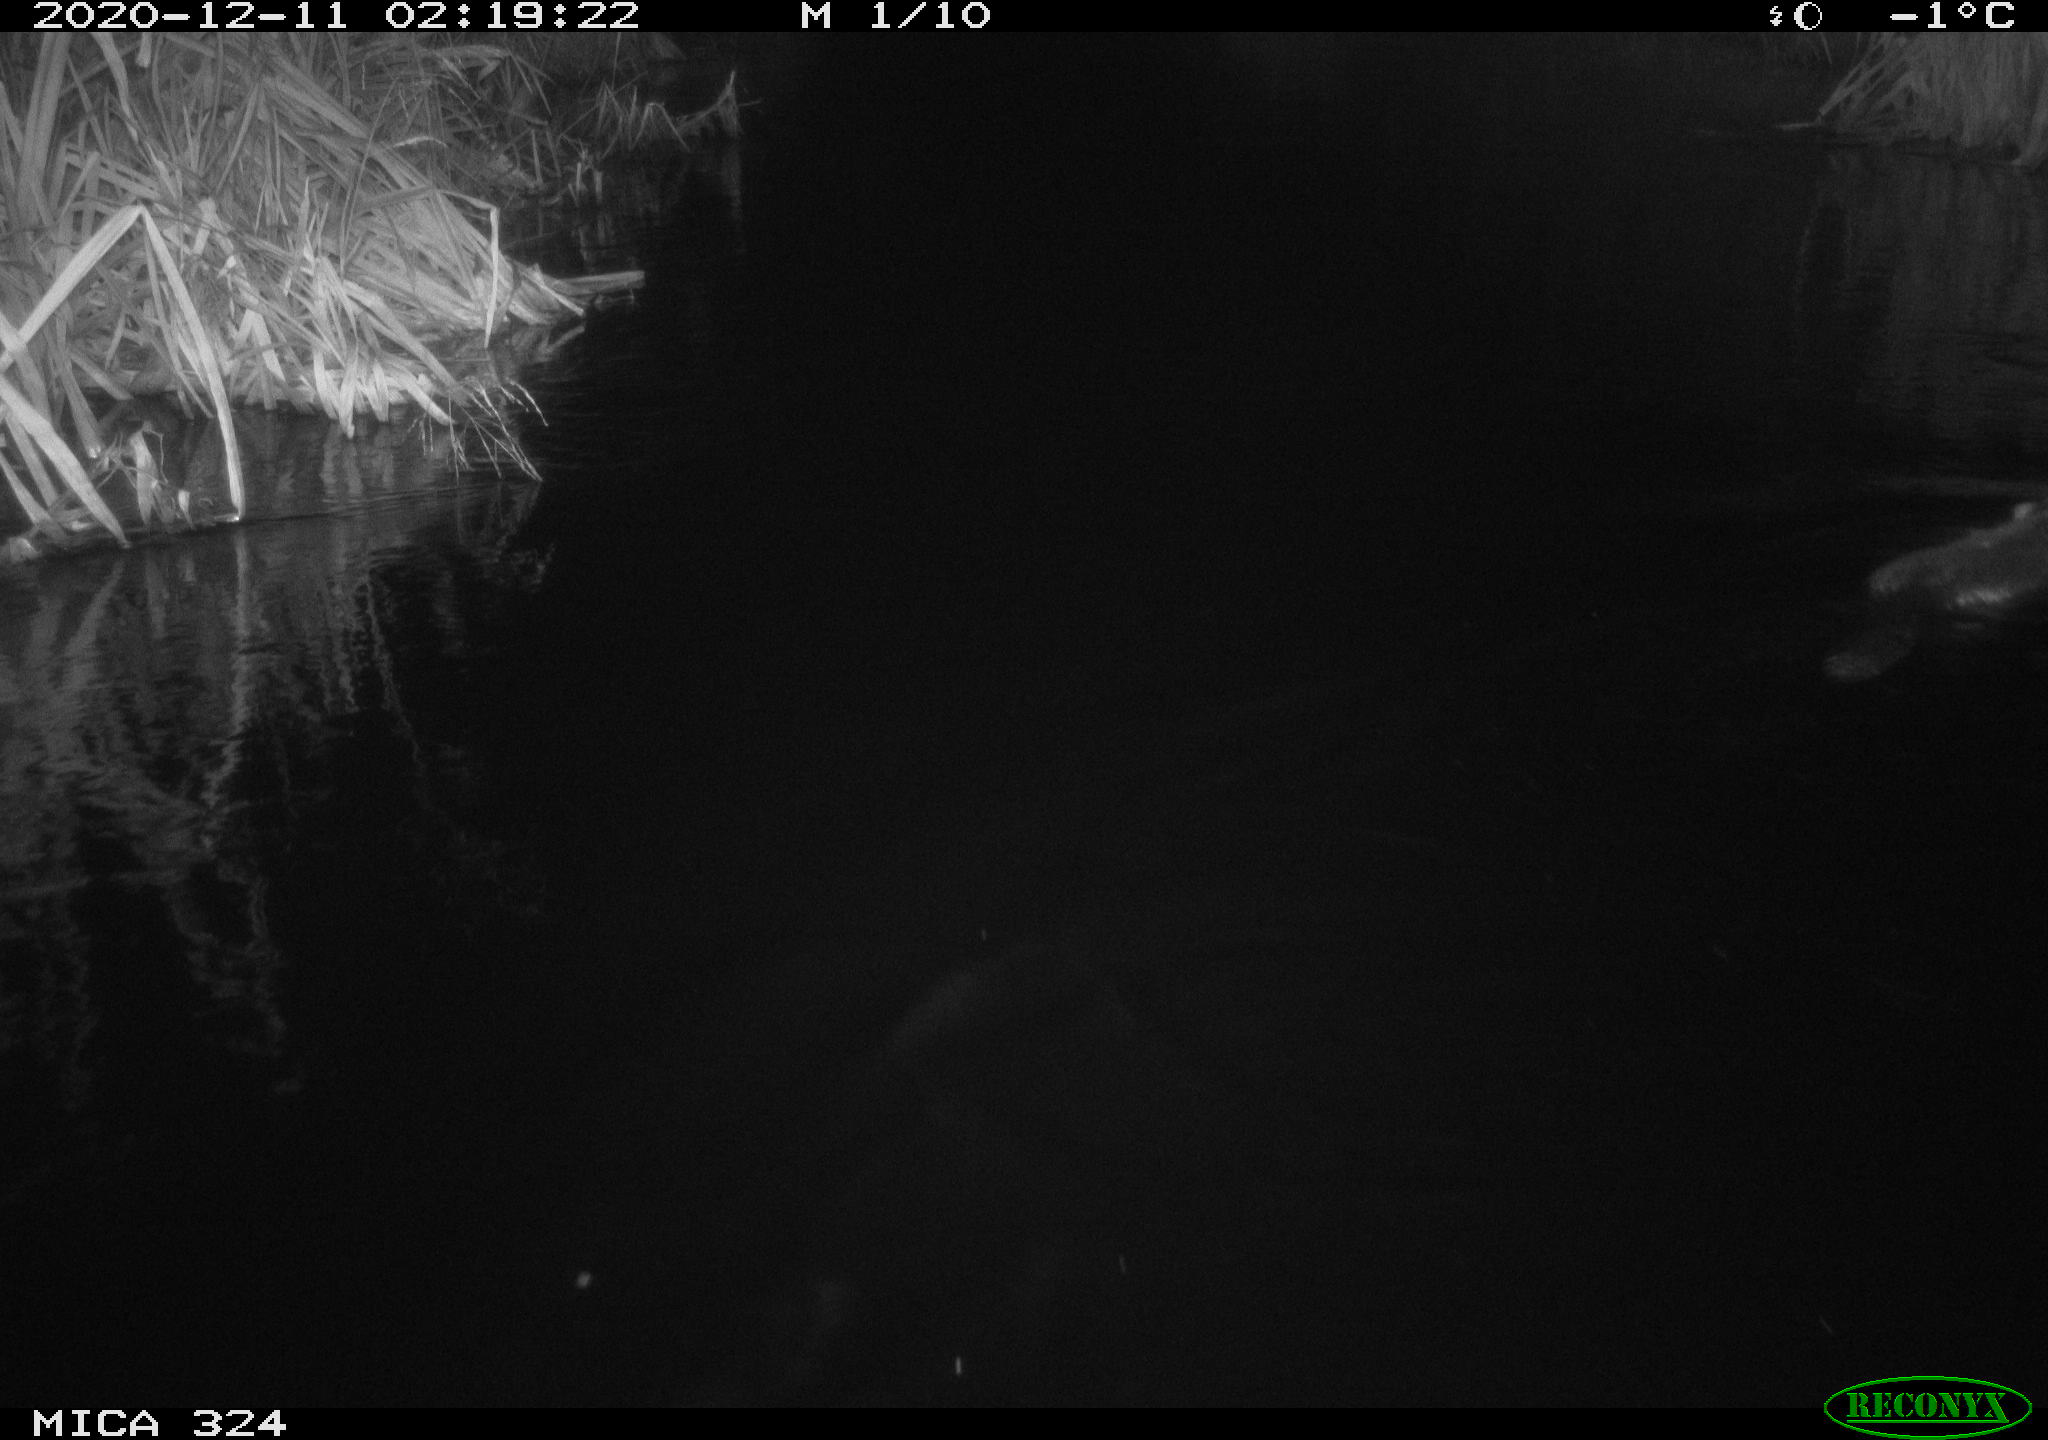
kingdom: Animalia
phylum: Chordata
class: Mammalia
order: Rodentia
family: Castoridae
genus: Castor
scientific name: Castor fiber
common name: Eurasian beaver
